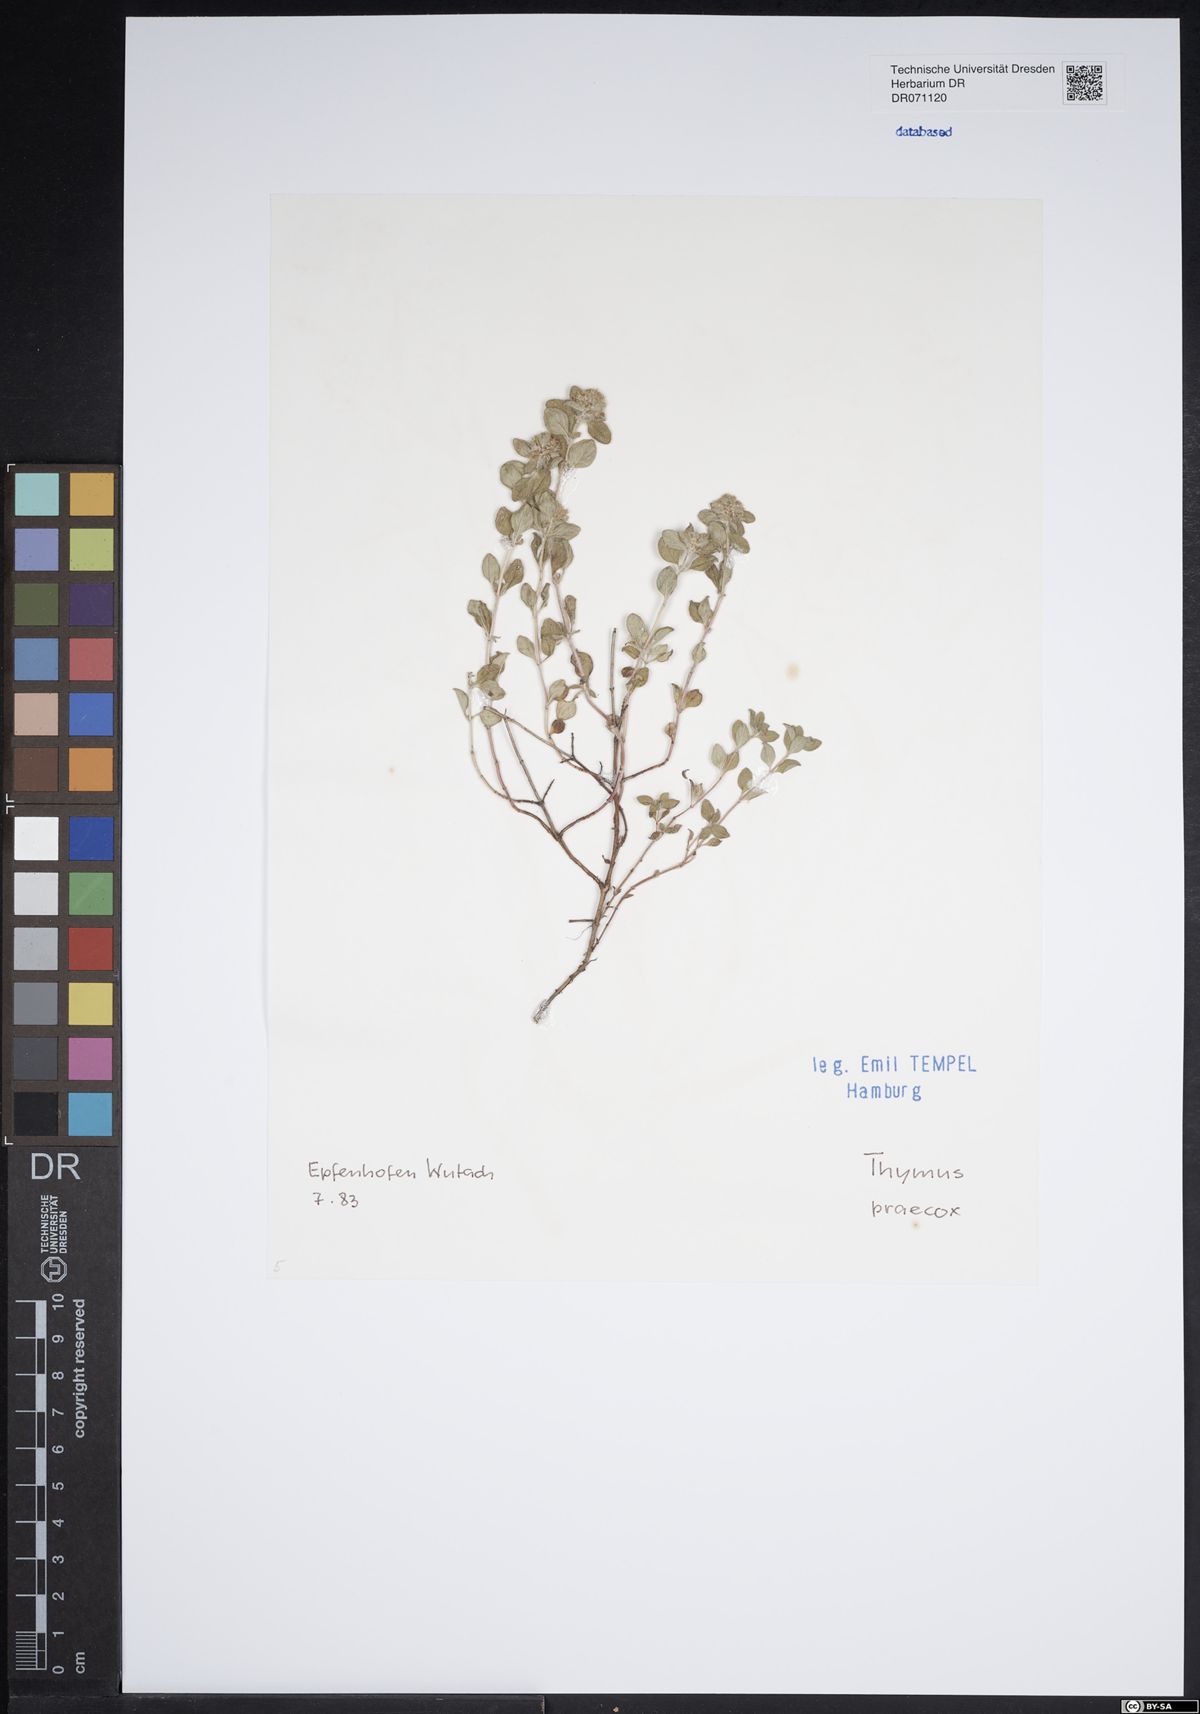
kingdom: Plantae
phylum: Tracheophyta
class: Magnoliopsida
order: Lamiales
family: Lamiaceae
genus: Thymus
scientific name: Thymus praecox
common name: Wild thyme
